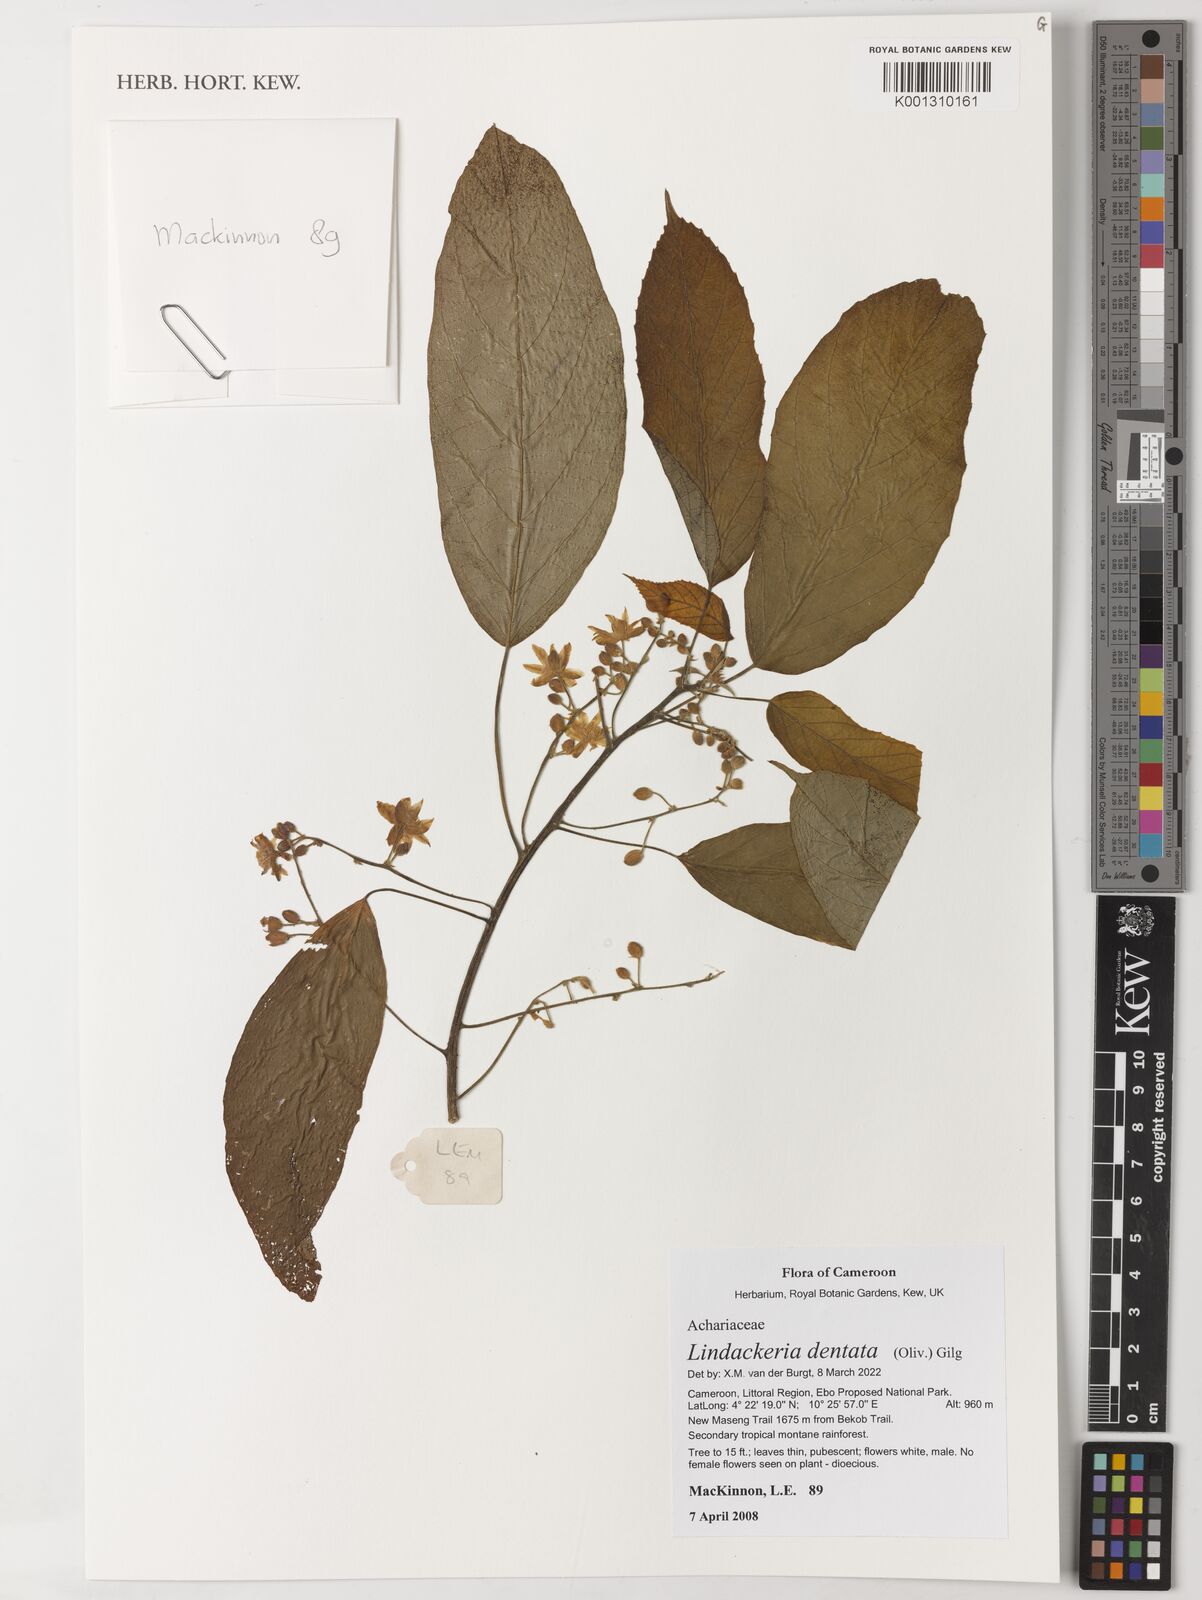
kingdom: Plantae
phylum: Tracheophyta
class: Magnoliopsida
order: Malpighiales
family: Achariaceae
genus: Lindackeria
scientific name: Lindackeria dentata
